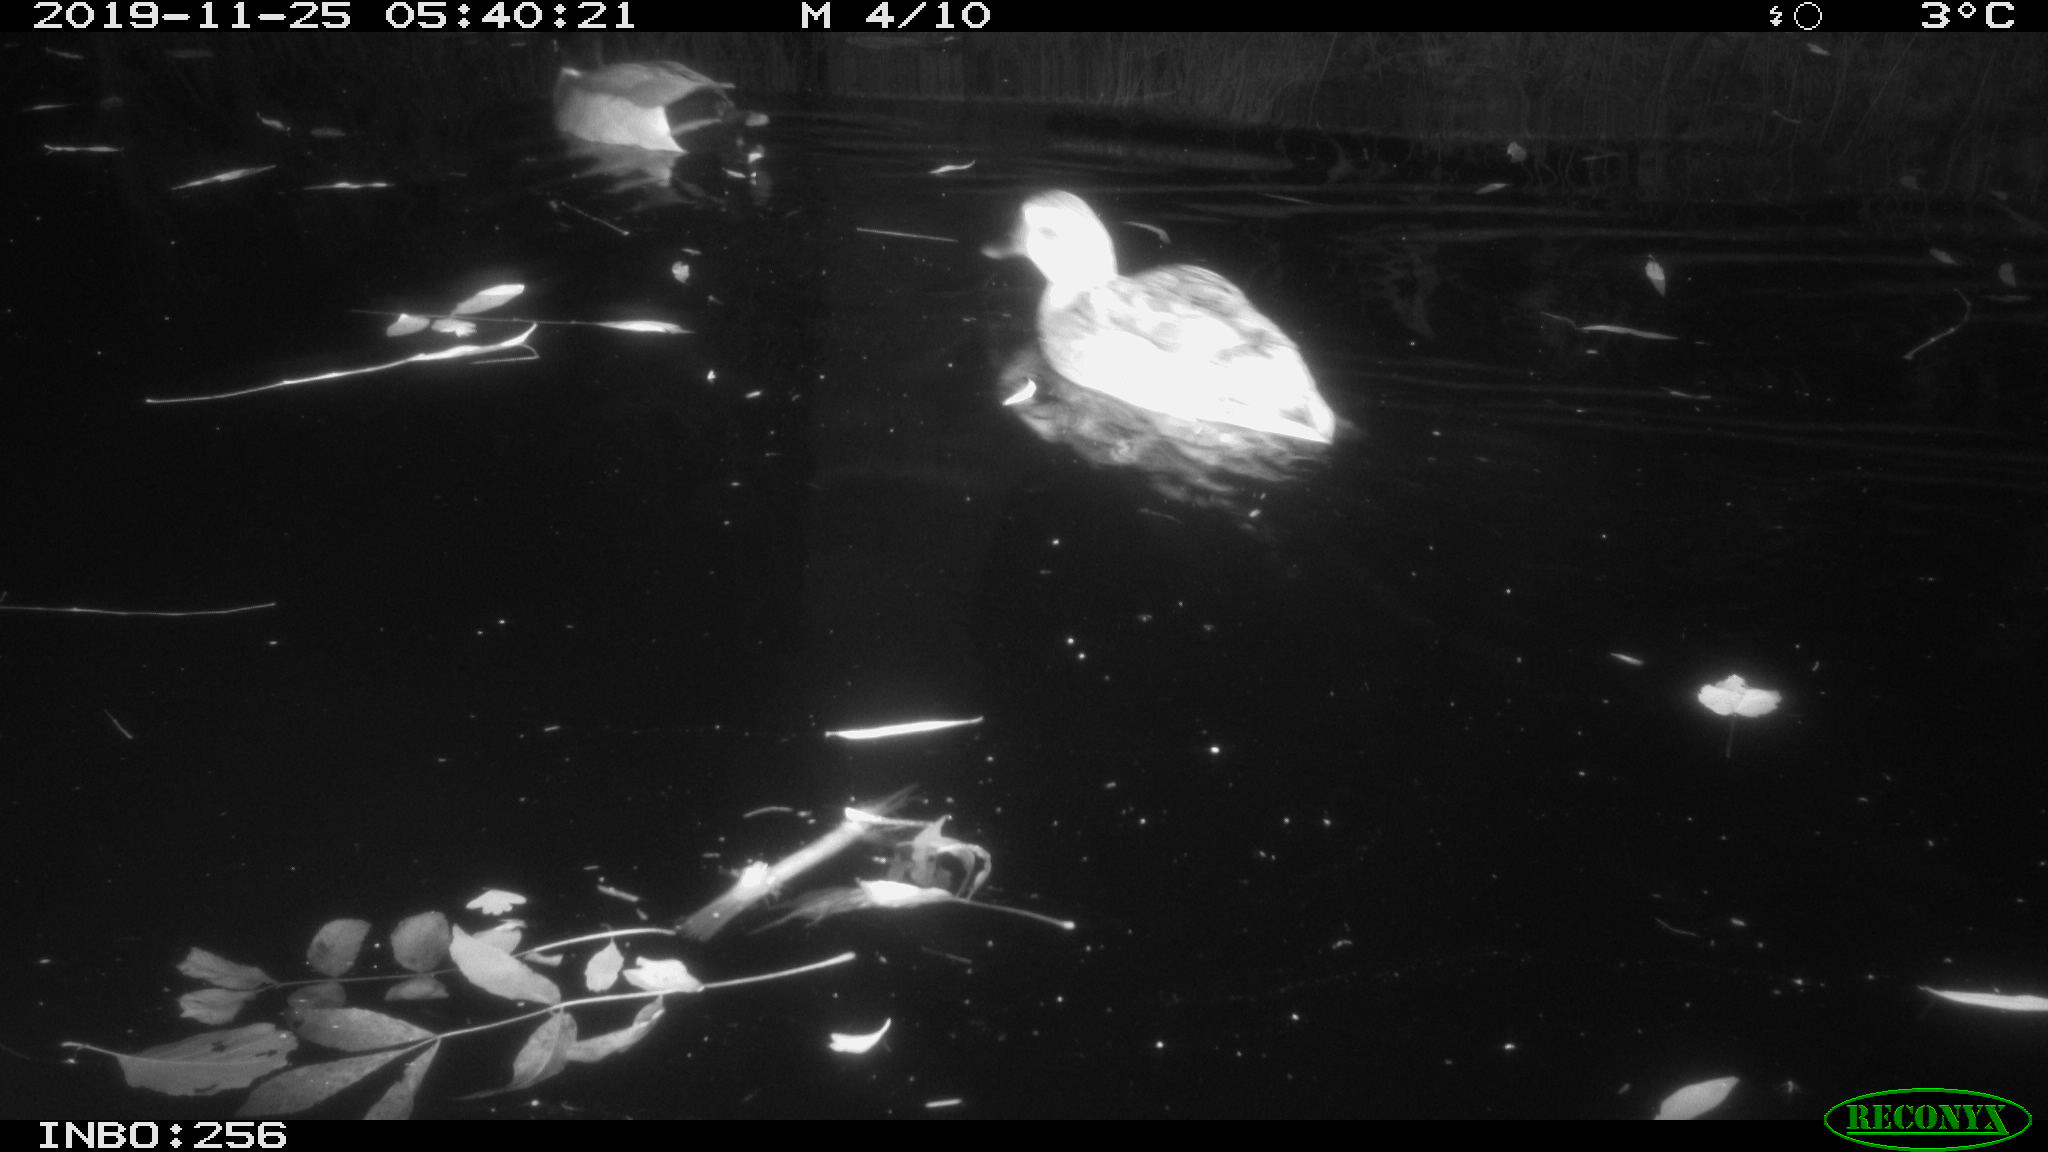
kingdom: Animalia
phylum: Chordata
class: Aves
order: Anseriformes
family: Anatidae
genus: Anas
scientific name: Anas platyrhynchos
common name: Mallard
